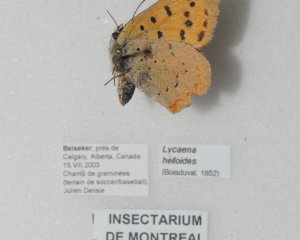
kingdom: Animalia
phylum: Arthropoda
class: Insecta
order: Lepidoptera
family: Sesiidae
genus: Sesia
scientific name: Sesia Lycaena helloides
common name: Purplish Copper
